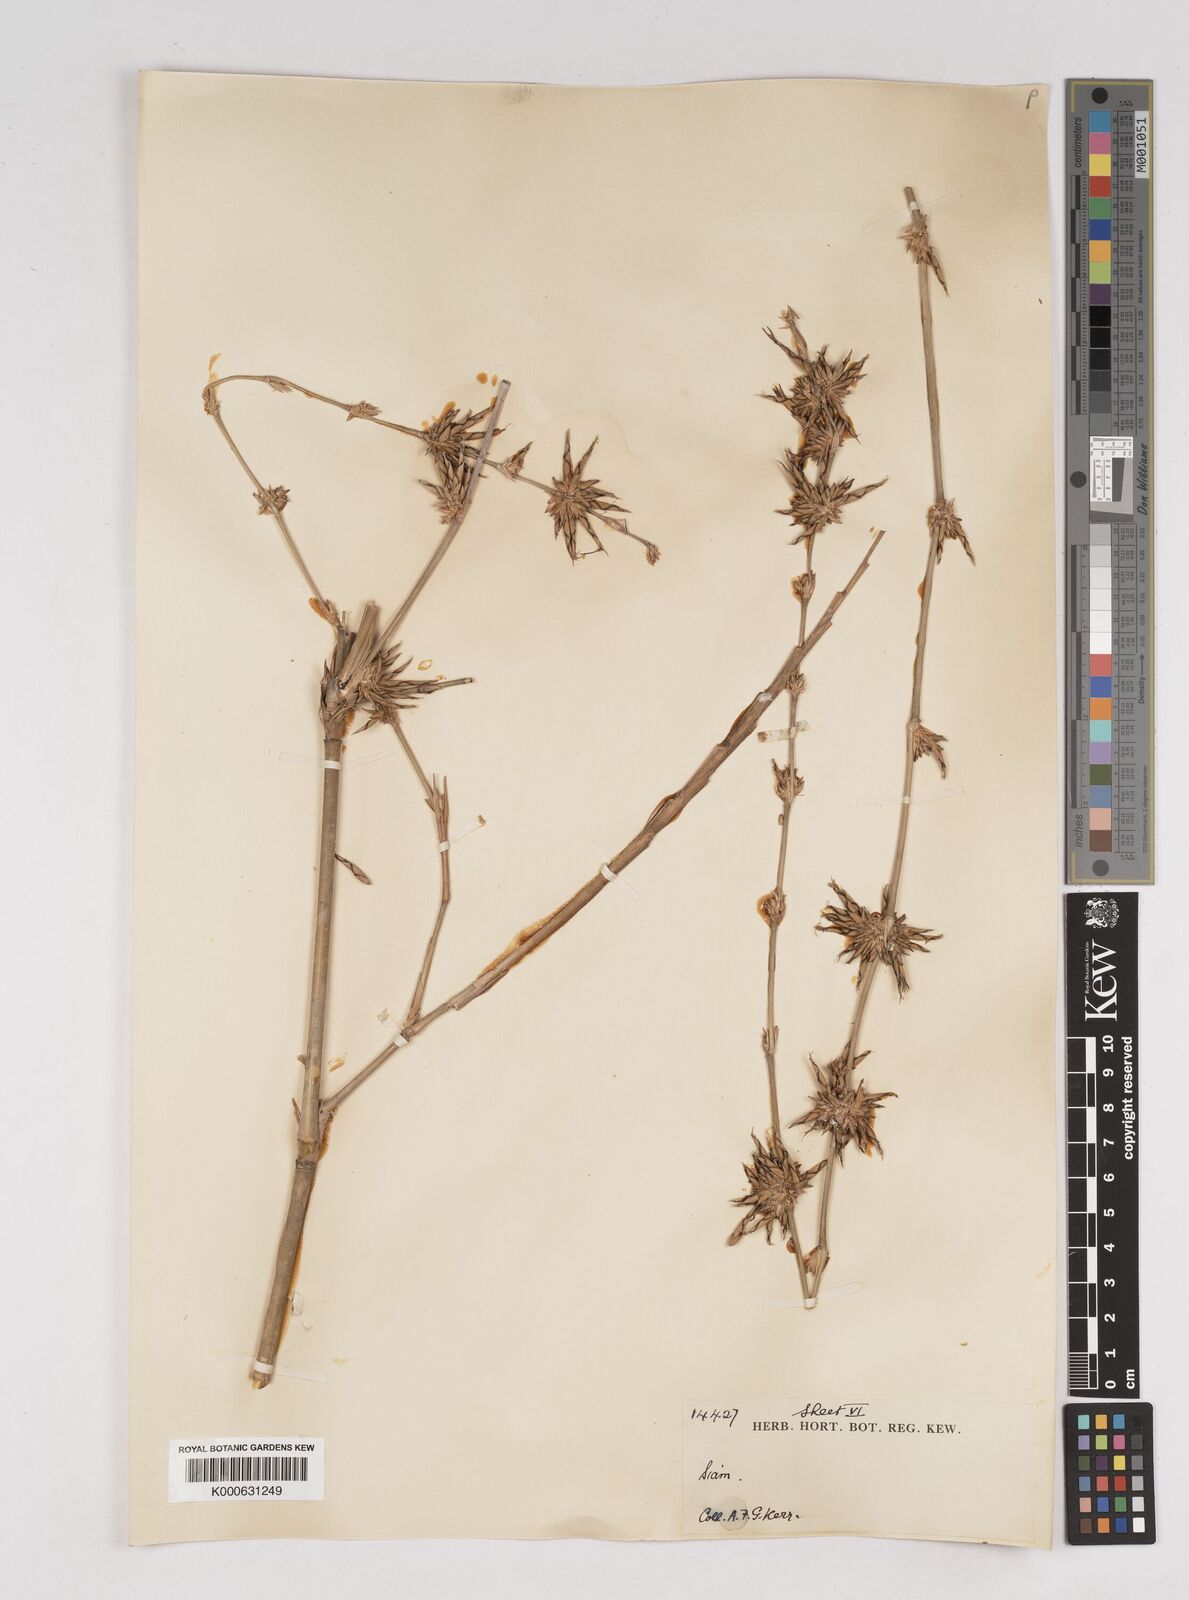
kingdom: Plantae
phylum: Tracheophyta
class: Liliopsida
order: Poales
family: Poaceae
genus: Gigantochloa
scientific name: Gigantochloa
